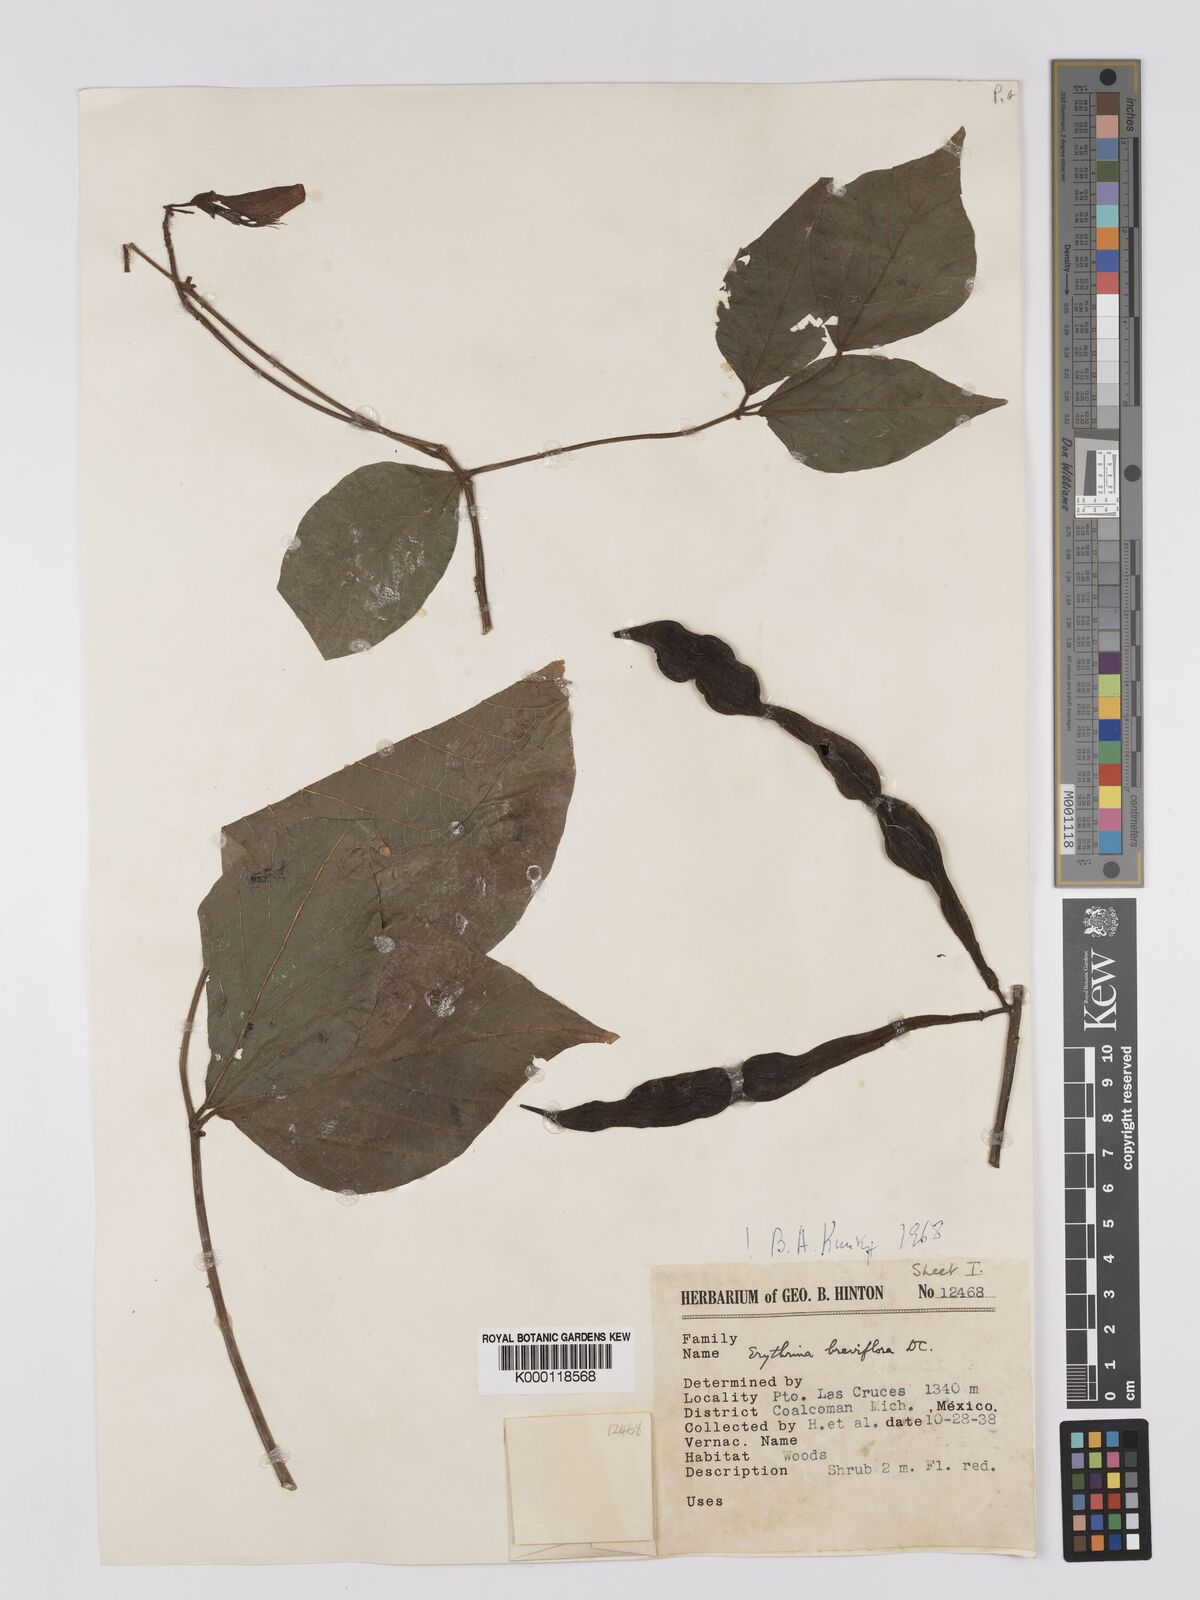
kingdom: Plantae
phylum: Tracheophyta
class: Magnoliopsida
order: Fabales
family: Fabaceae
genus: Erythrina
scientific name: Erythrina breviflora
